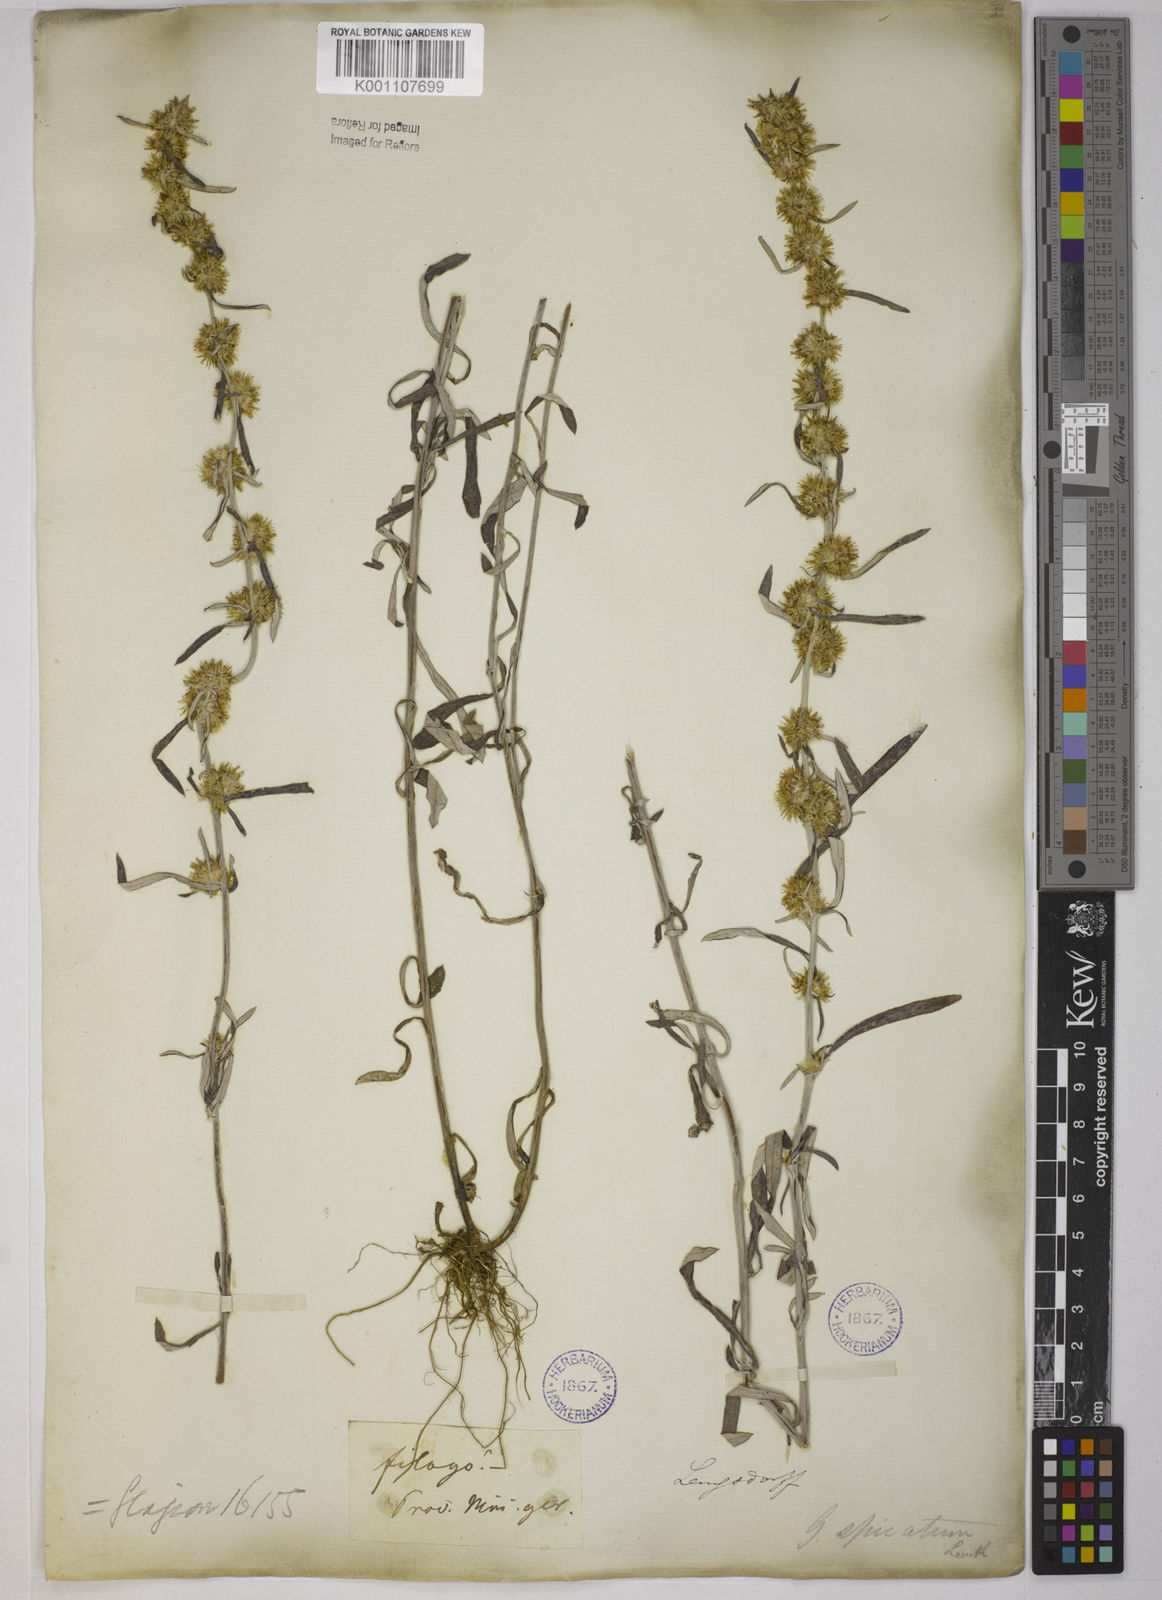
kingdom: Plantae
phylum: Tracheophyta
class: Magnoliopsida
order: Asterales
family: Asteraceae
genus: Gamochaeta
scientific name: Gamochaeta simplicicaulis
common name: Simple-stem everlasting
